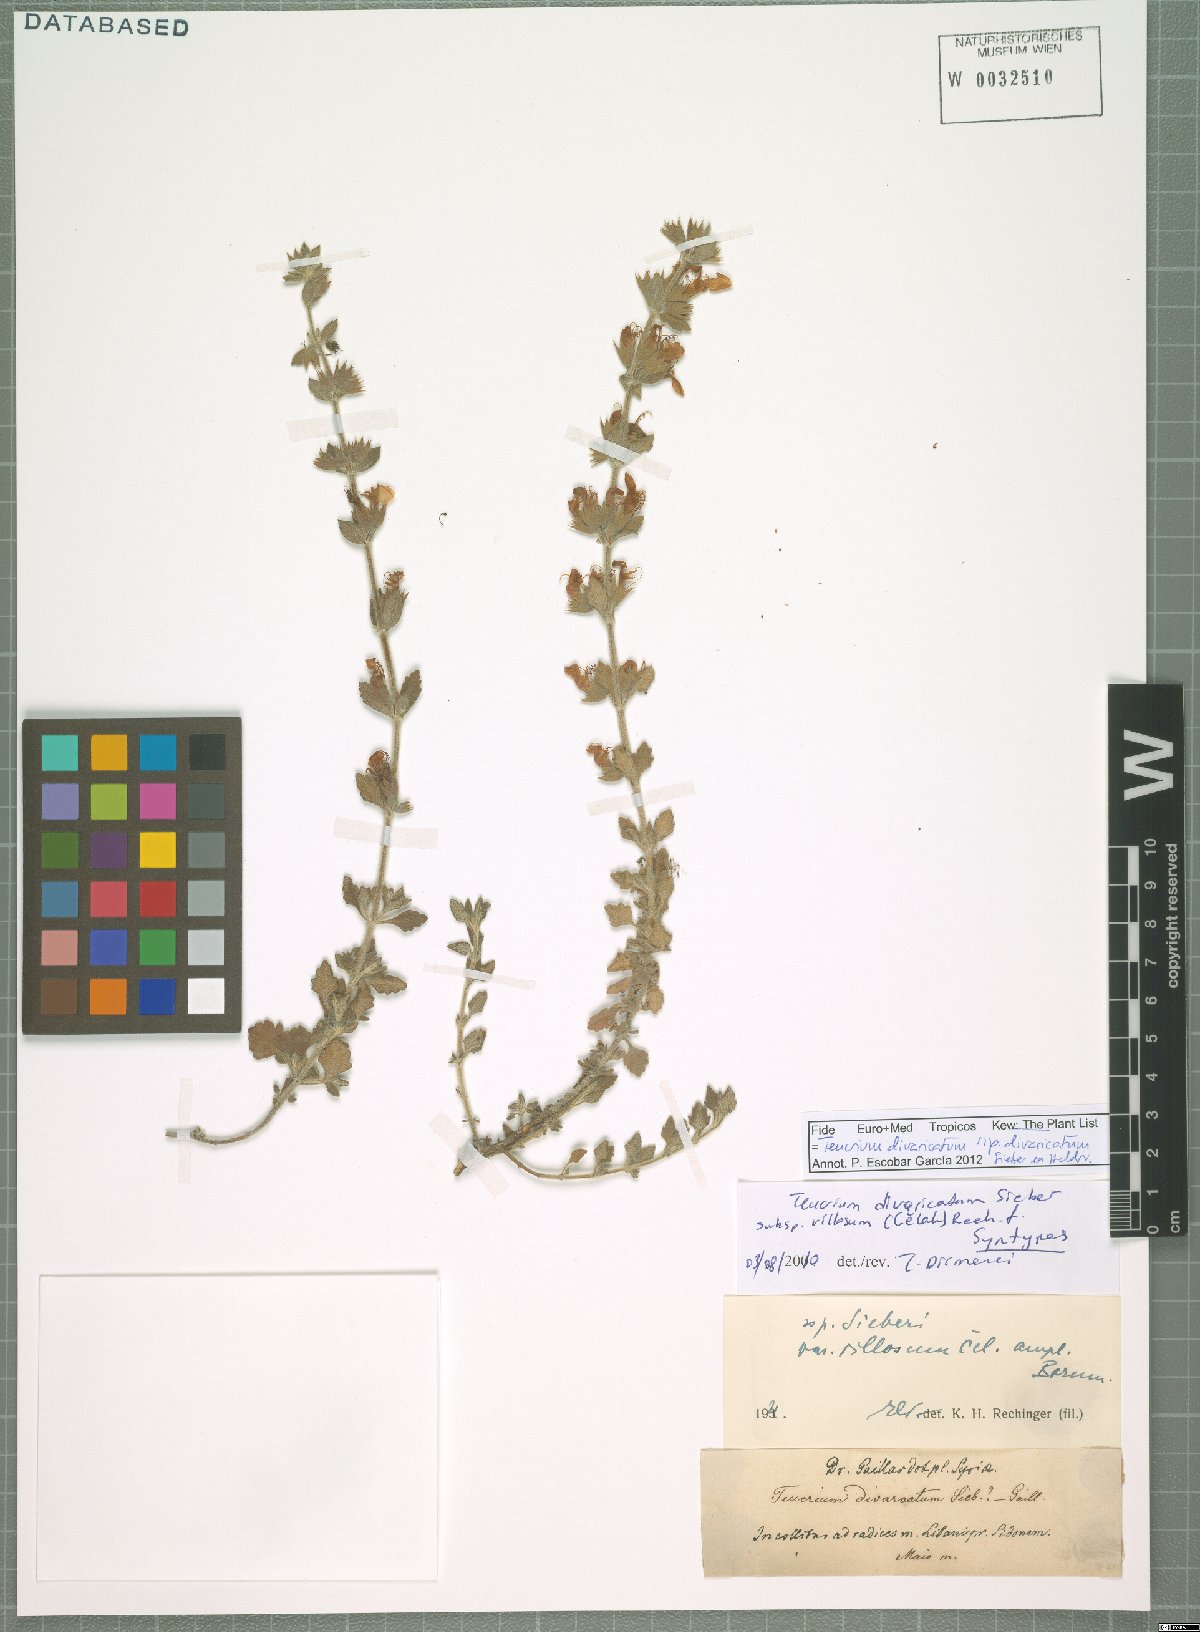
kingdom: Plantae
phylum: Tracheophyta
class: Magnoliopsida
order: Lamiales
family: Lamiaceae
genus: Teucrium
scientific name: Teucrium divaricatum
